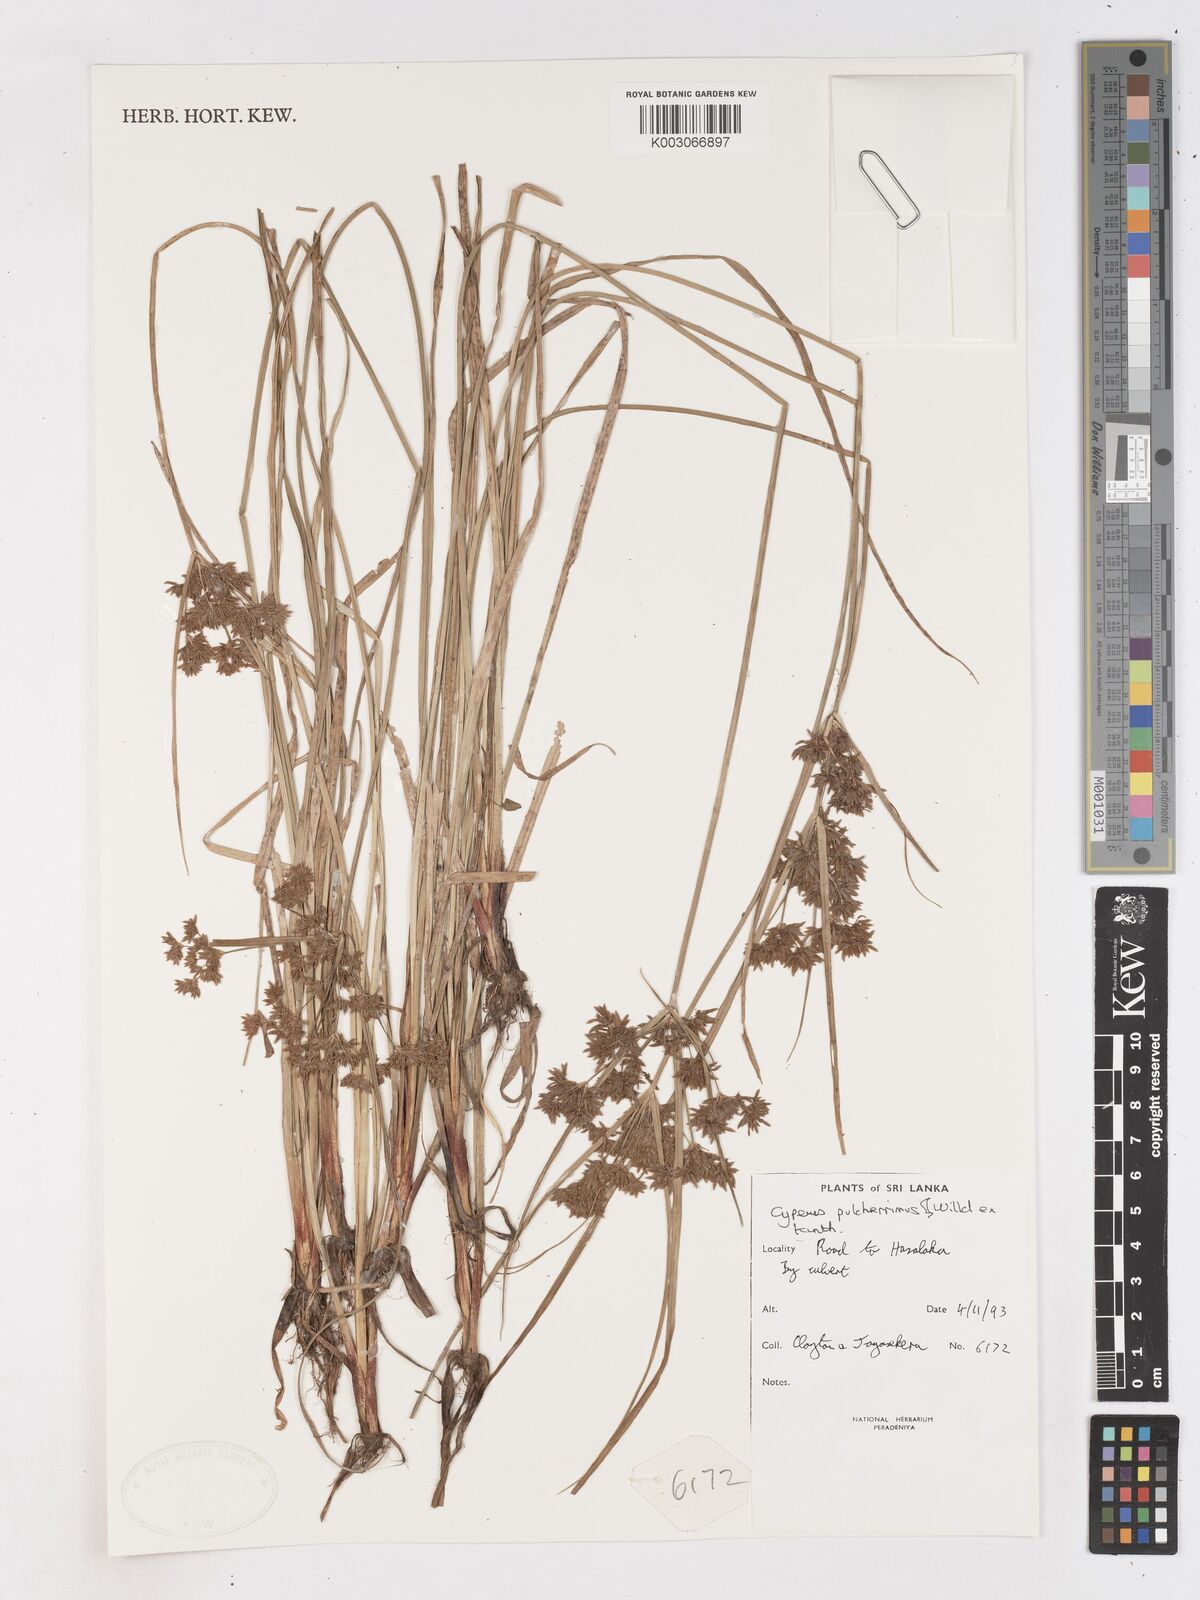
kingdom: Plantae
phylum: Tracheophyta
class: Liliopsida
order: Poales
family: Cyperaceae
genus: Cyperus
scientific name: Cyperus pulcherrimus
